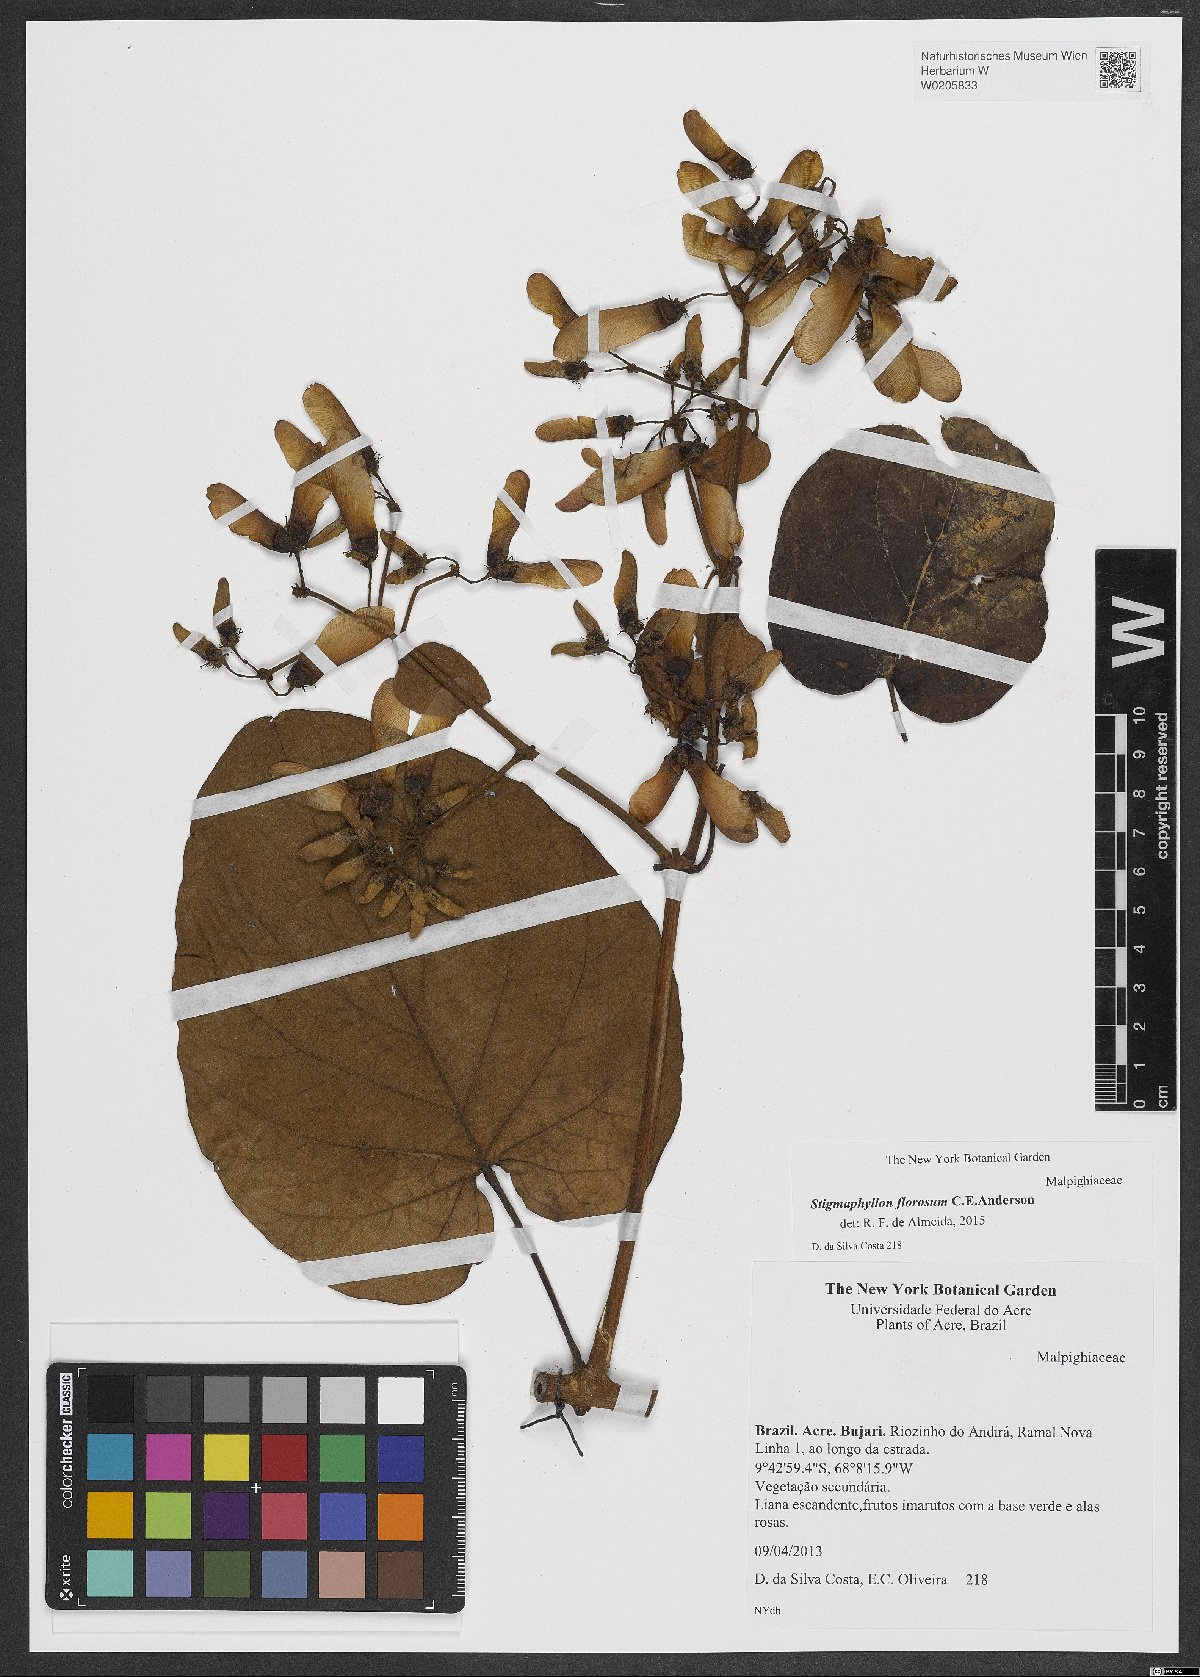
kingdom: Plantae
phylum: Tracheophyta
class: Magnoliopsida
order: Malpighiales
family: Malpighiaceae
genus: Stigmaphyllon
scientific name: Stigmaphyllon florosum
